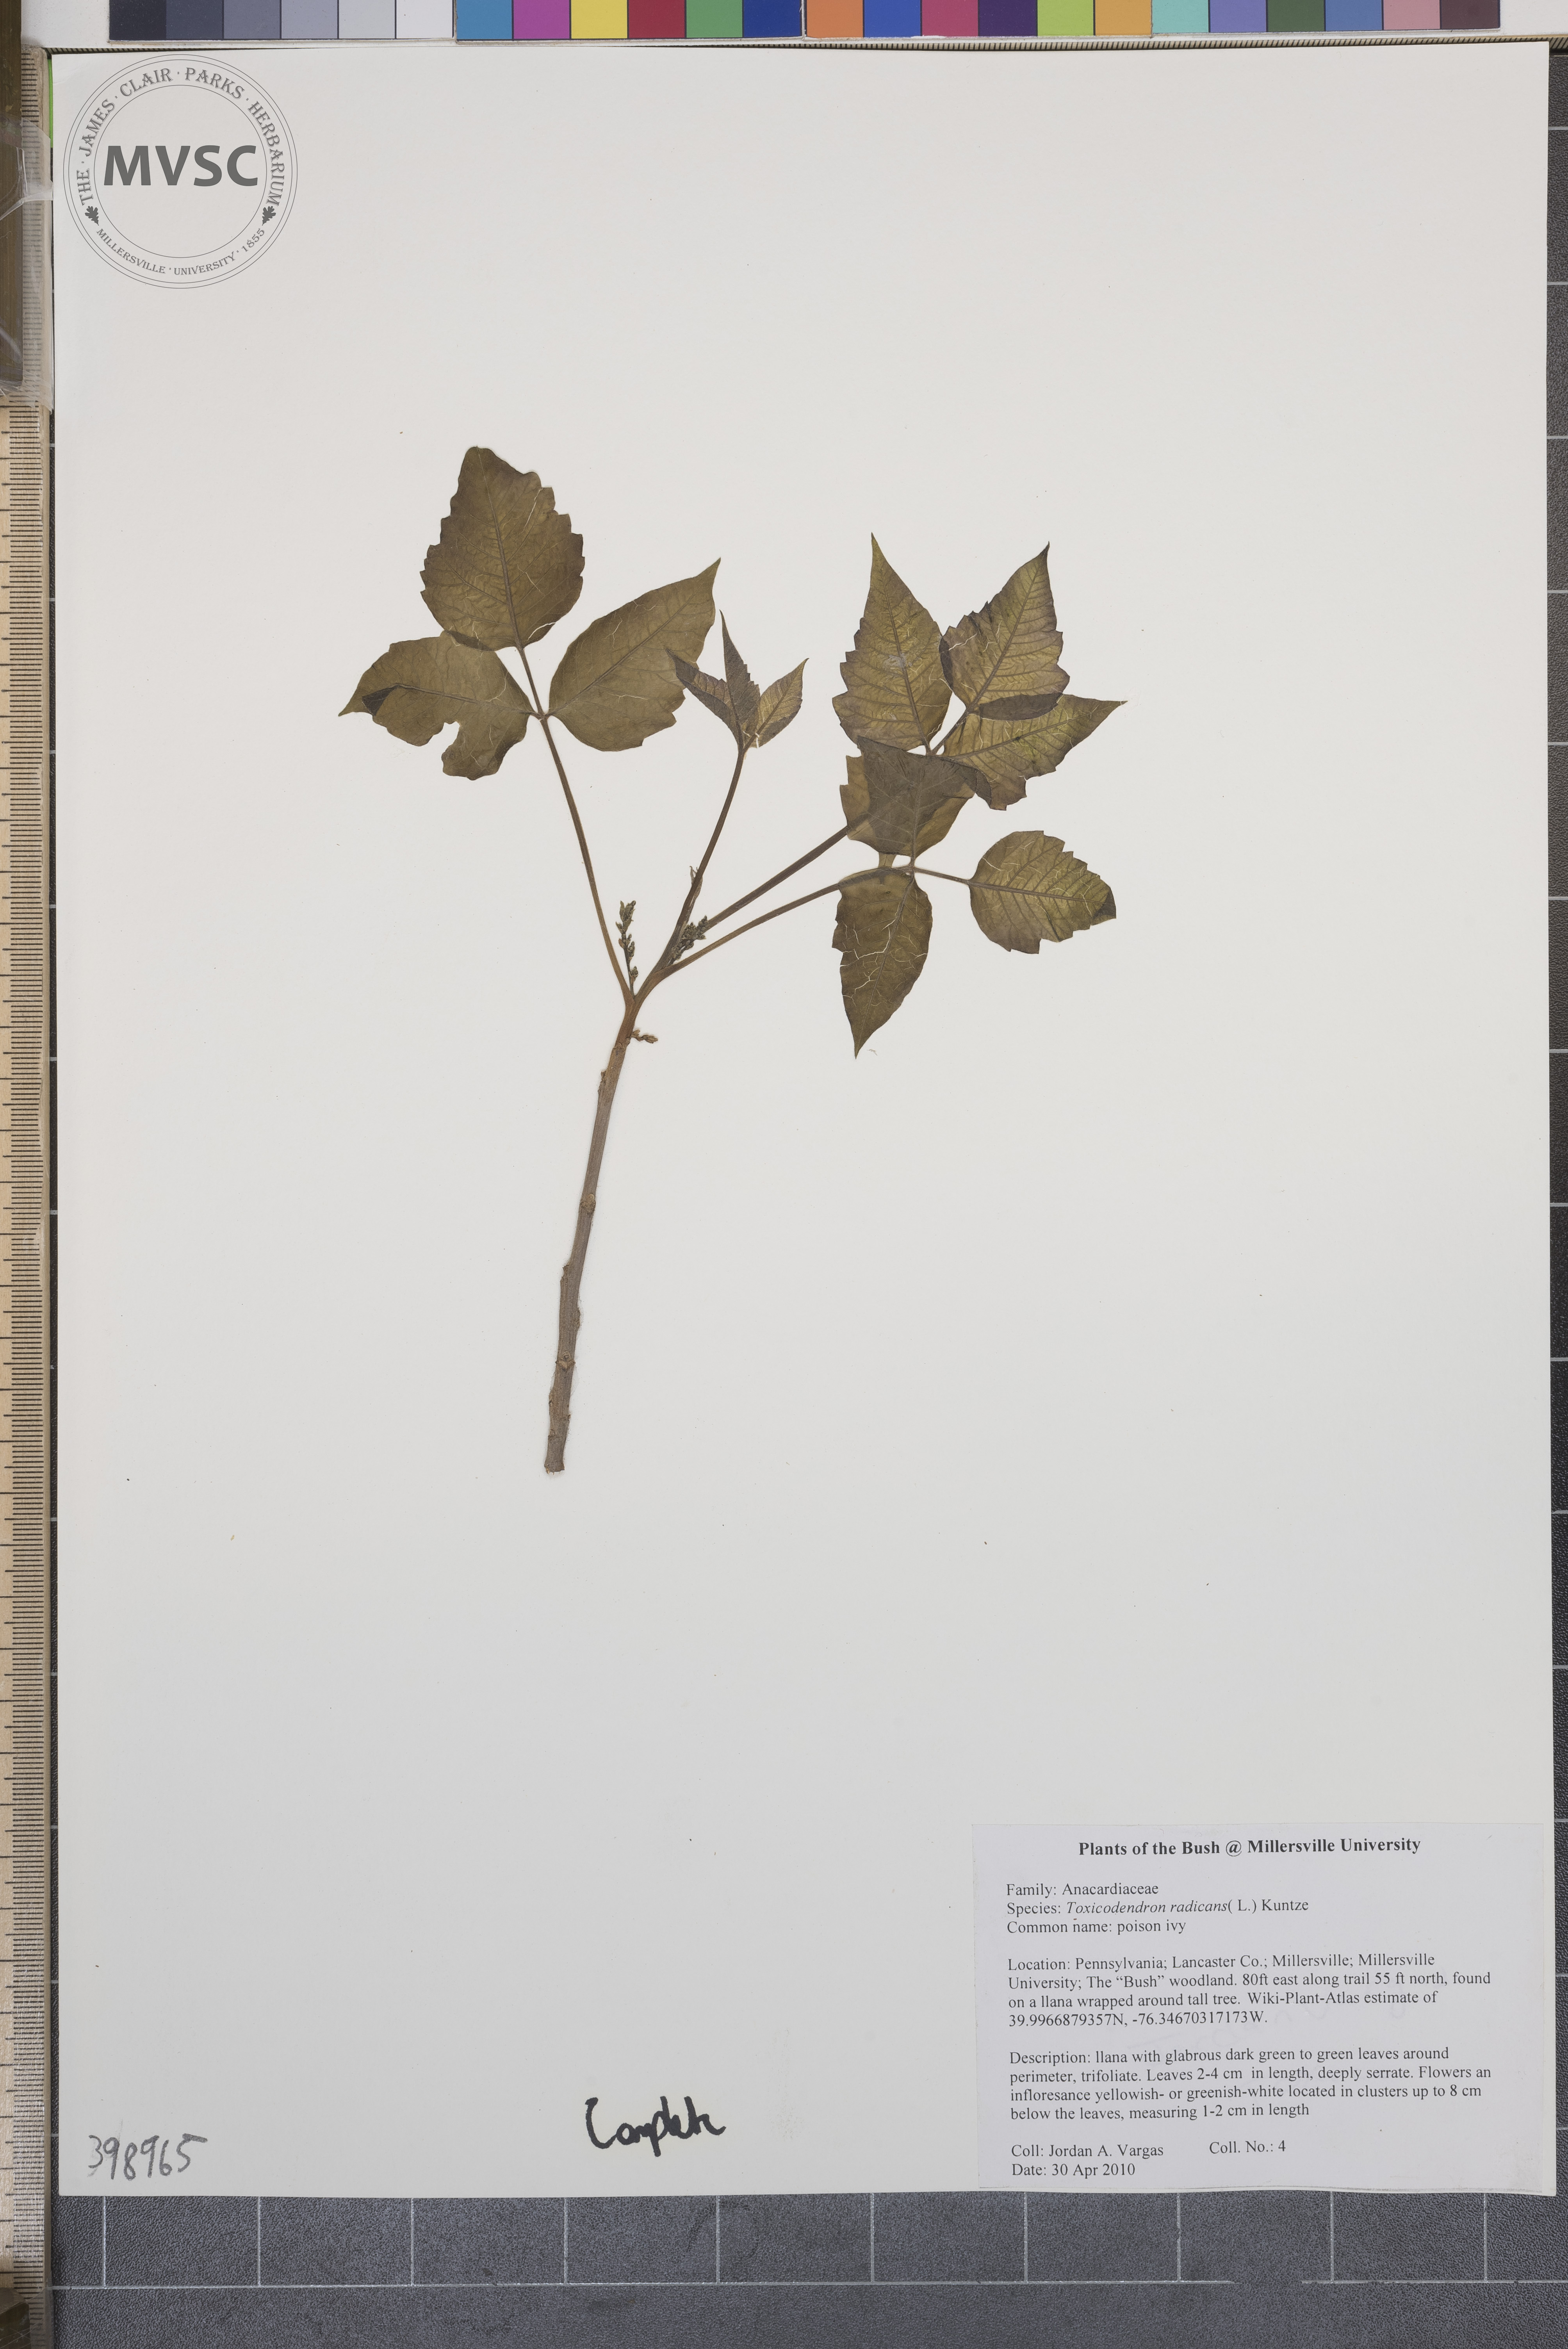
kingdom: Plantae
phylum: Tracheophyta
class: Magnoliopsida
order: Sapindales
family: Anacardiaceae
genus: Toxicodendron
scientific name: Toxicodendron radicans
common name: Poison-ivy
